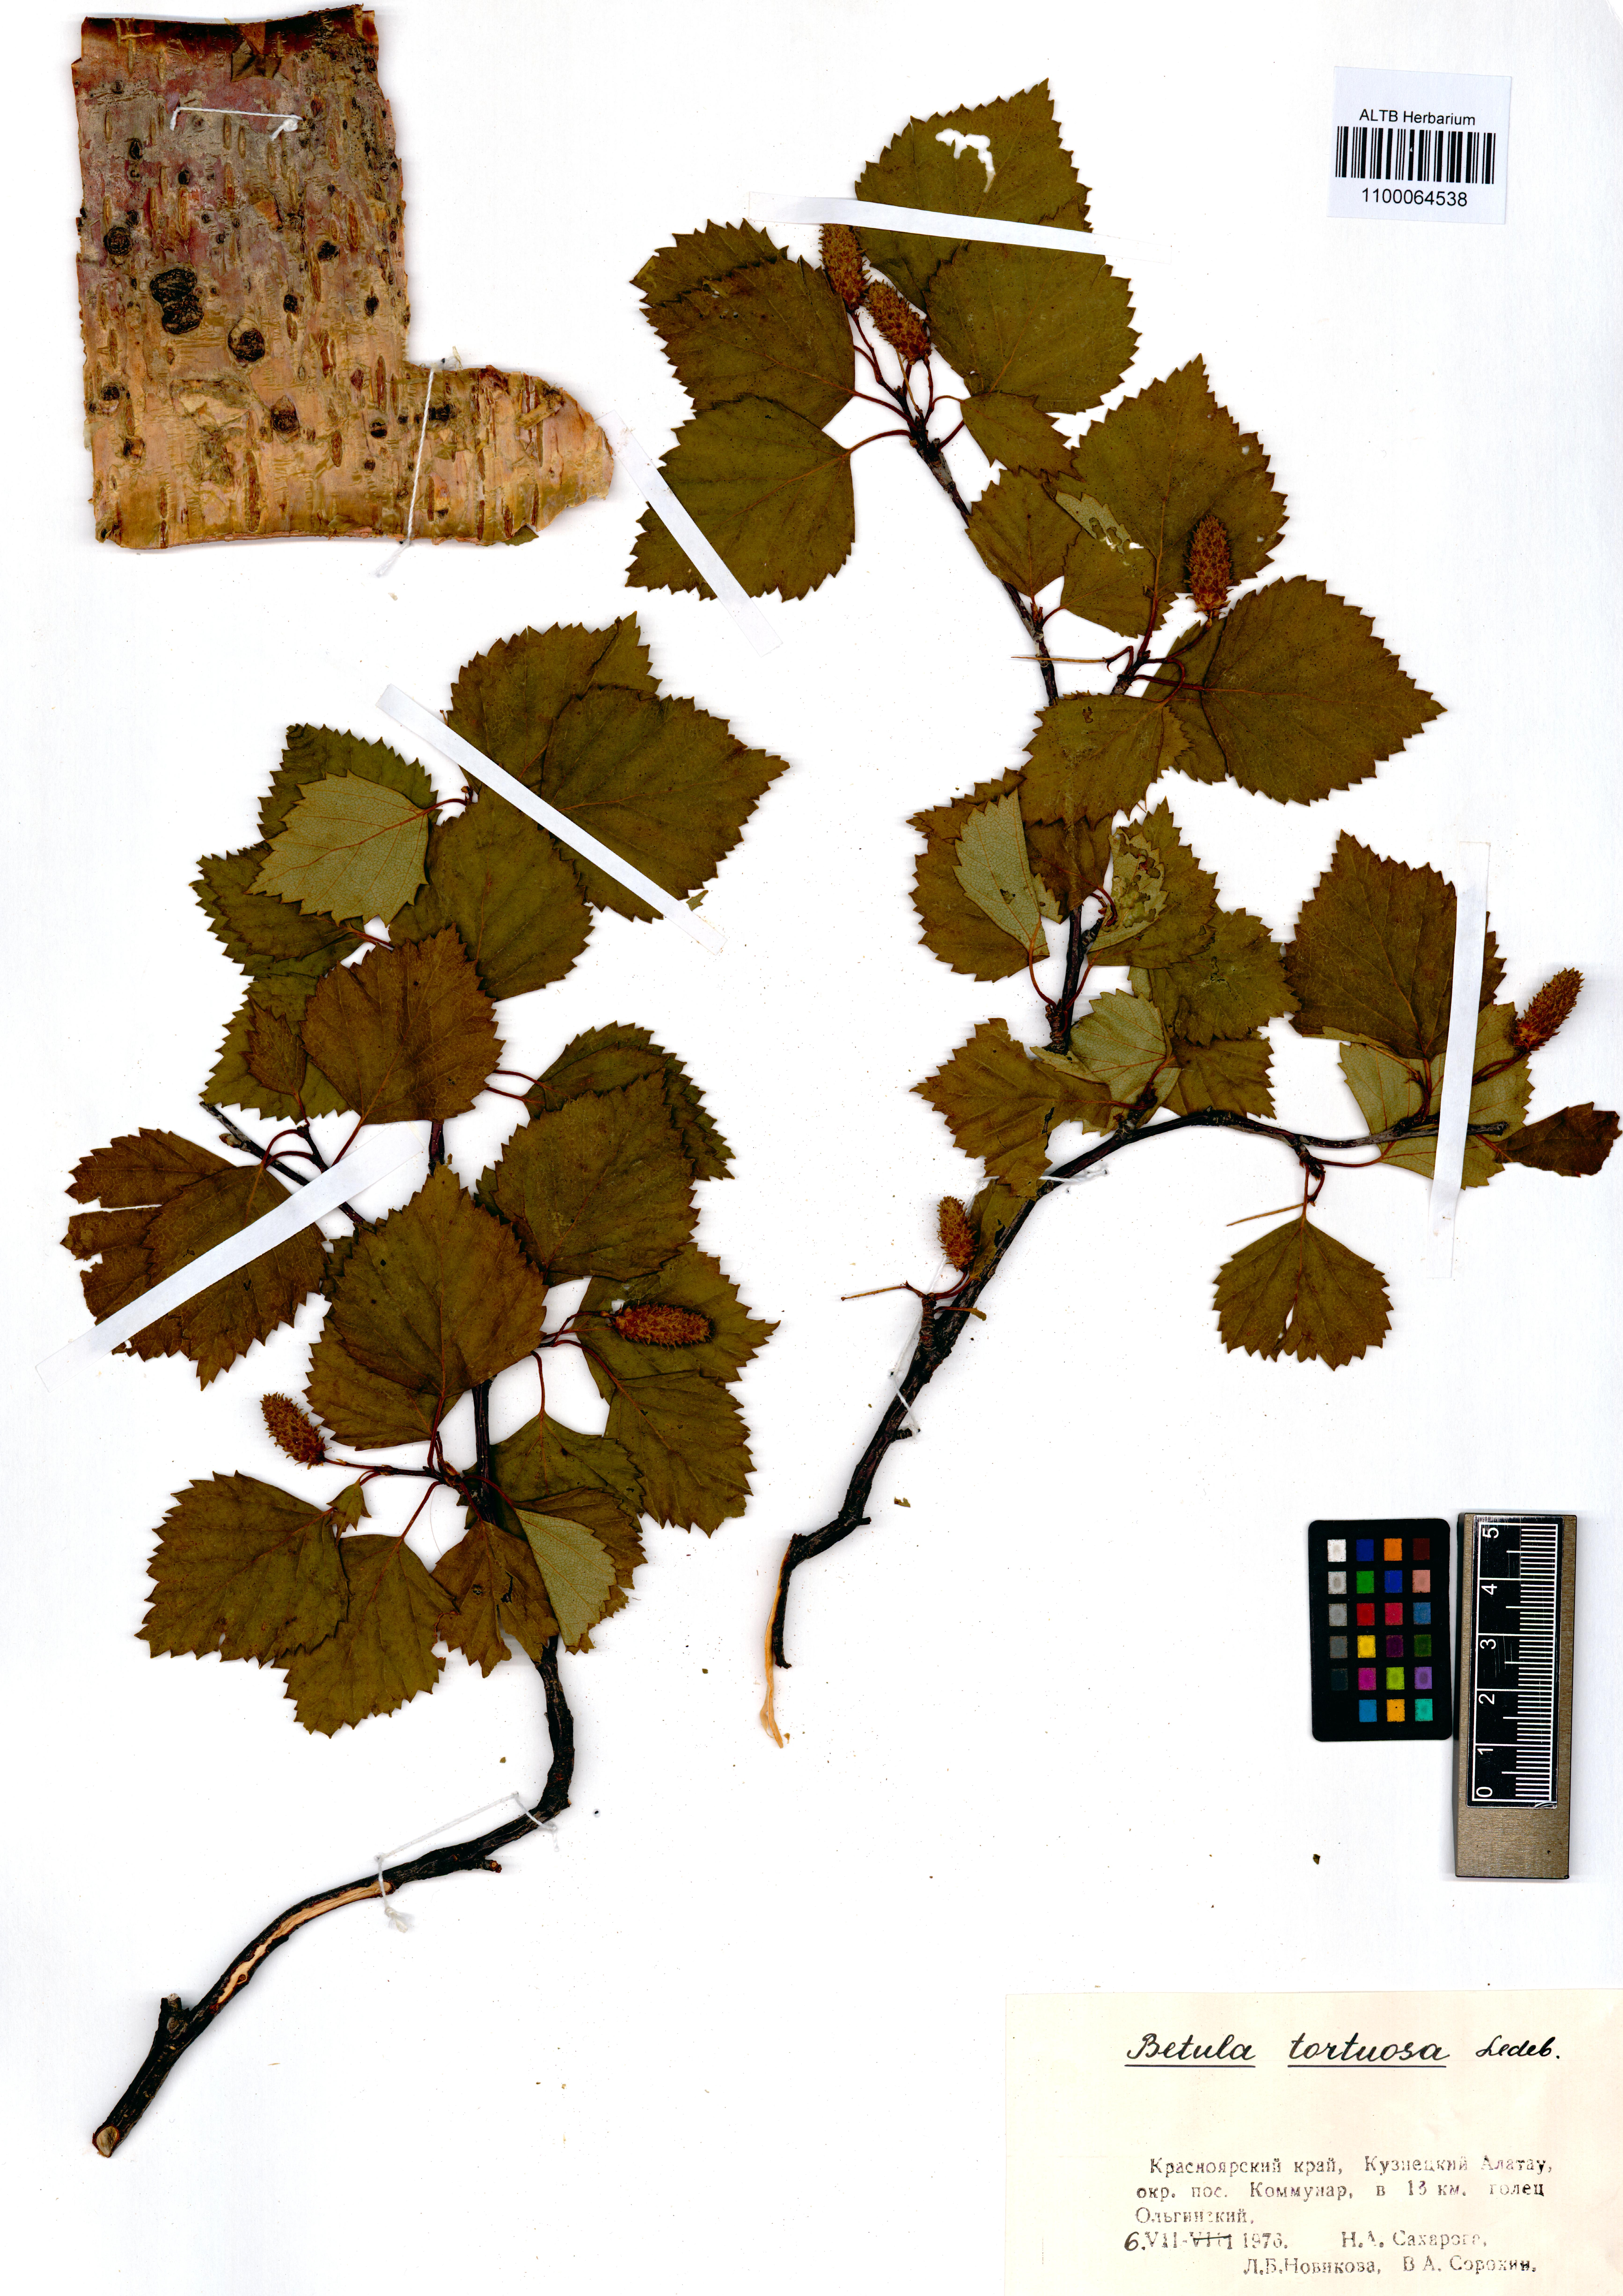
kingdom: Plantae
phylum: Tracheophyta
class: Magnoliopsida
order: Fagales
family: Betulaceae
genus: Betula
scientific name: Betula pubescens
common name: Downy birch
